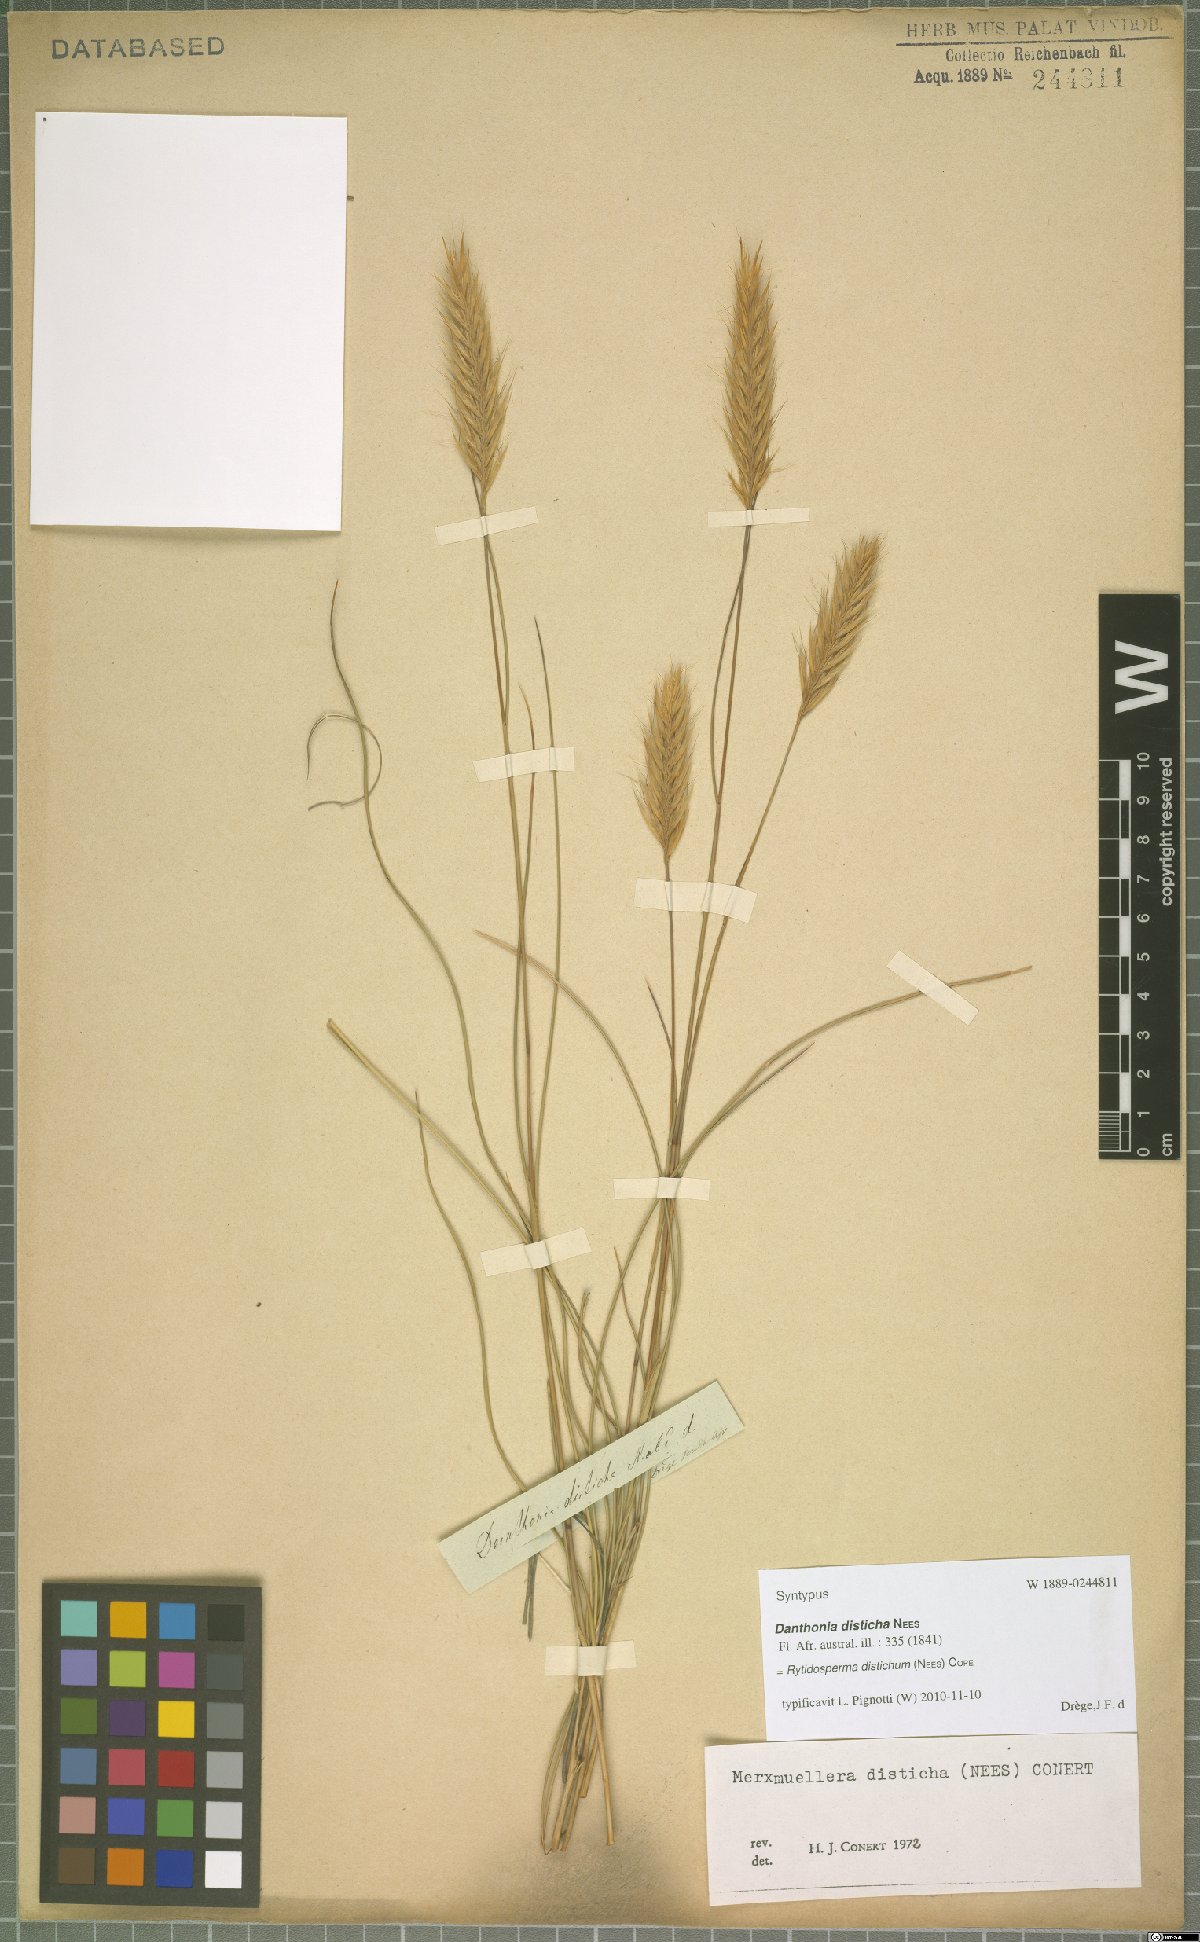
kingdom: Plantae
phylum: Tracheophyta
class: Liliopsida
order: Poales
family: Poaceae
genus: Tenaxia
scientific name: Tenaxia disticha
